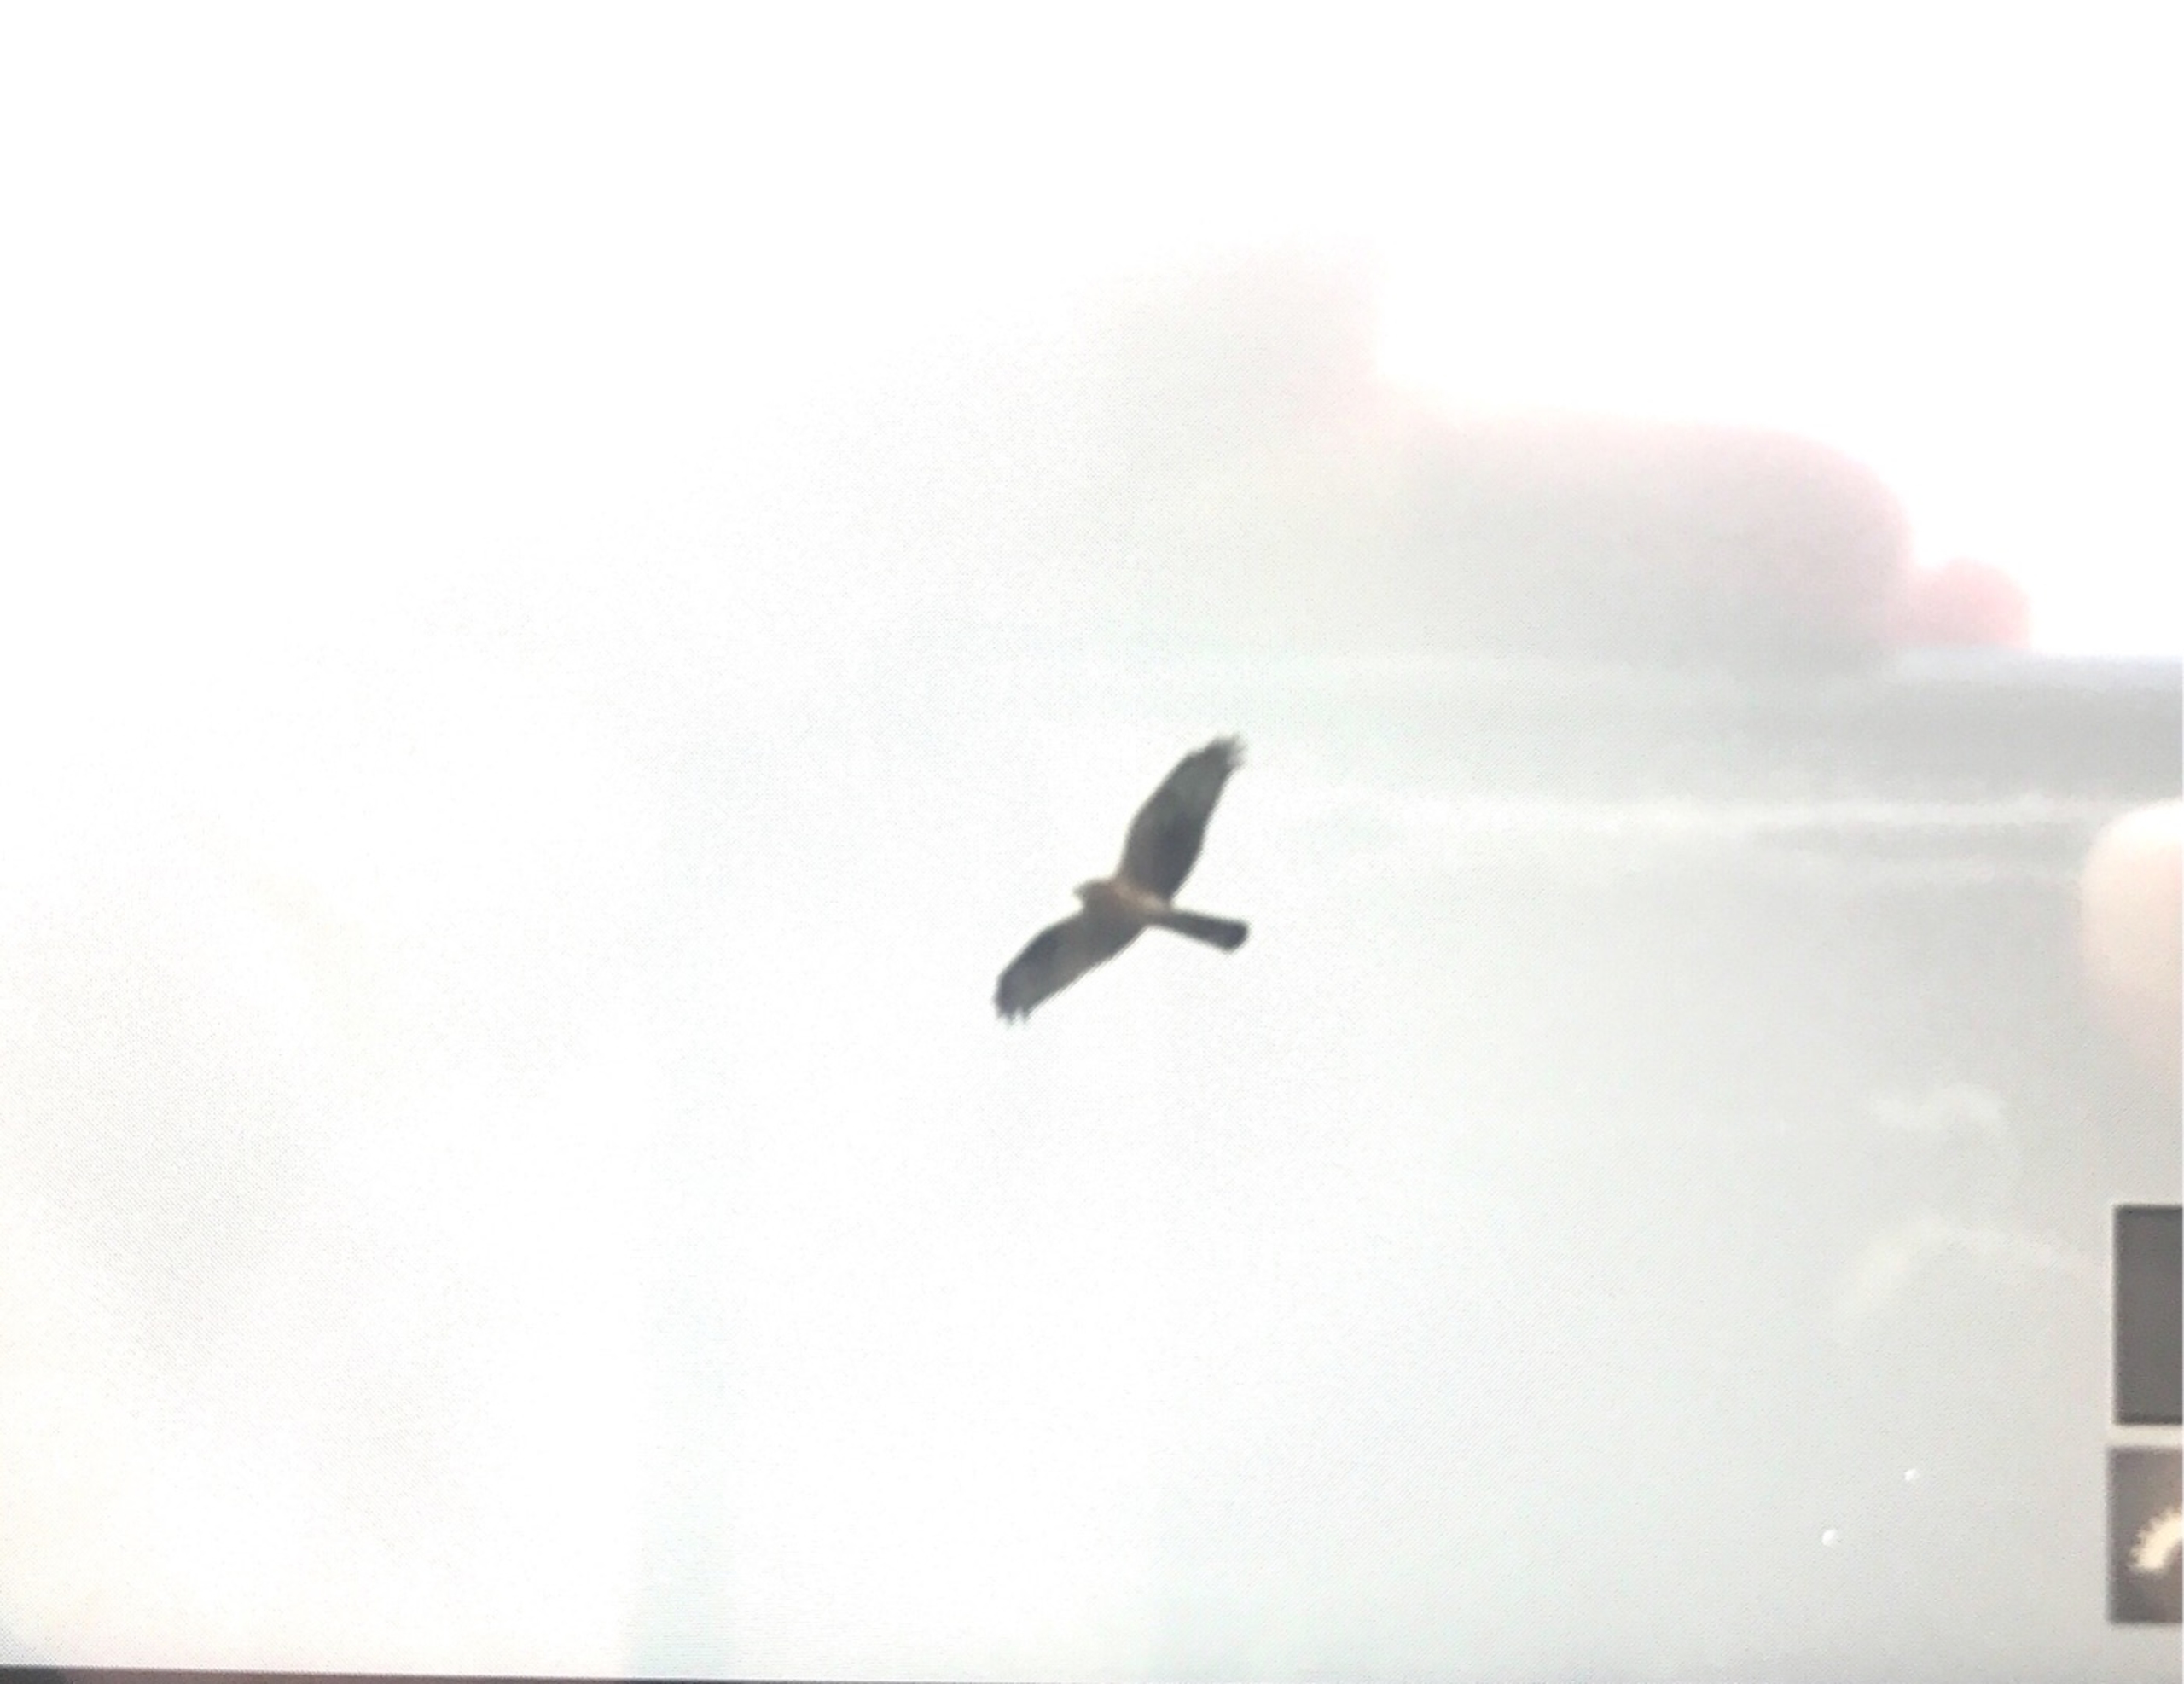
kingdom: Animalia
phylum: Chordata
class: Aves
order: Accipitriformes
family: Accipitridae
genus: Circus
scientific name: Circus cyaneus
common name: Blå kærhøg
